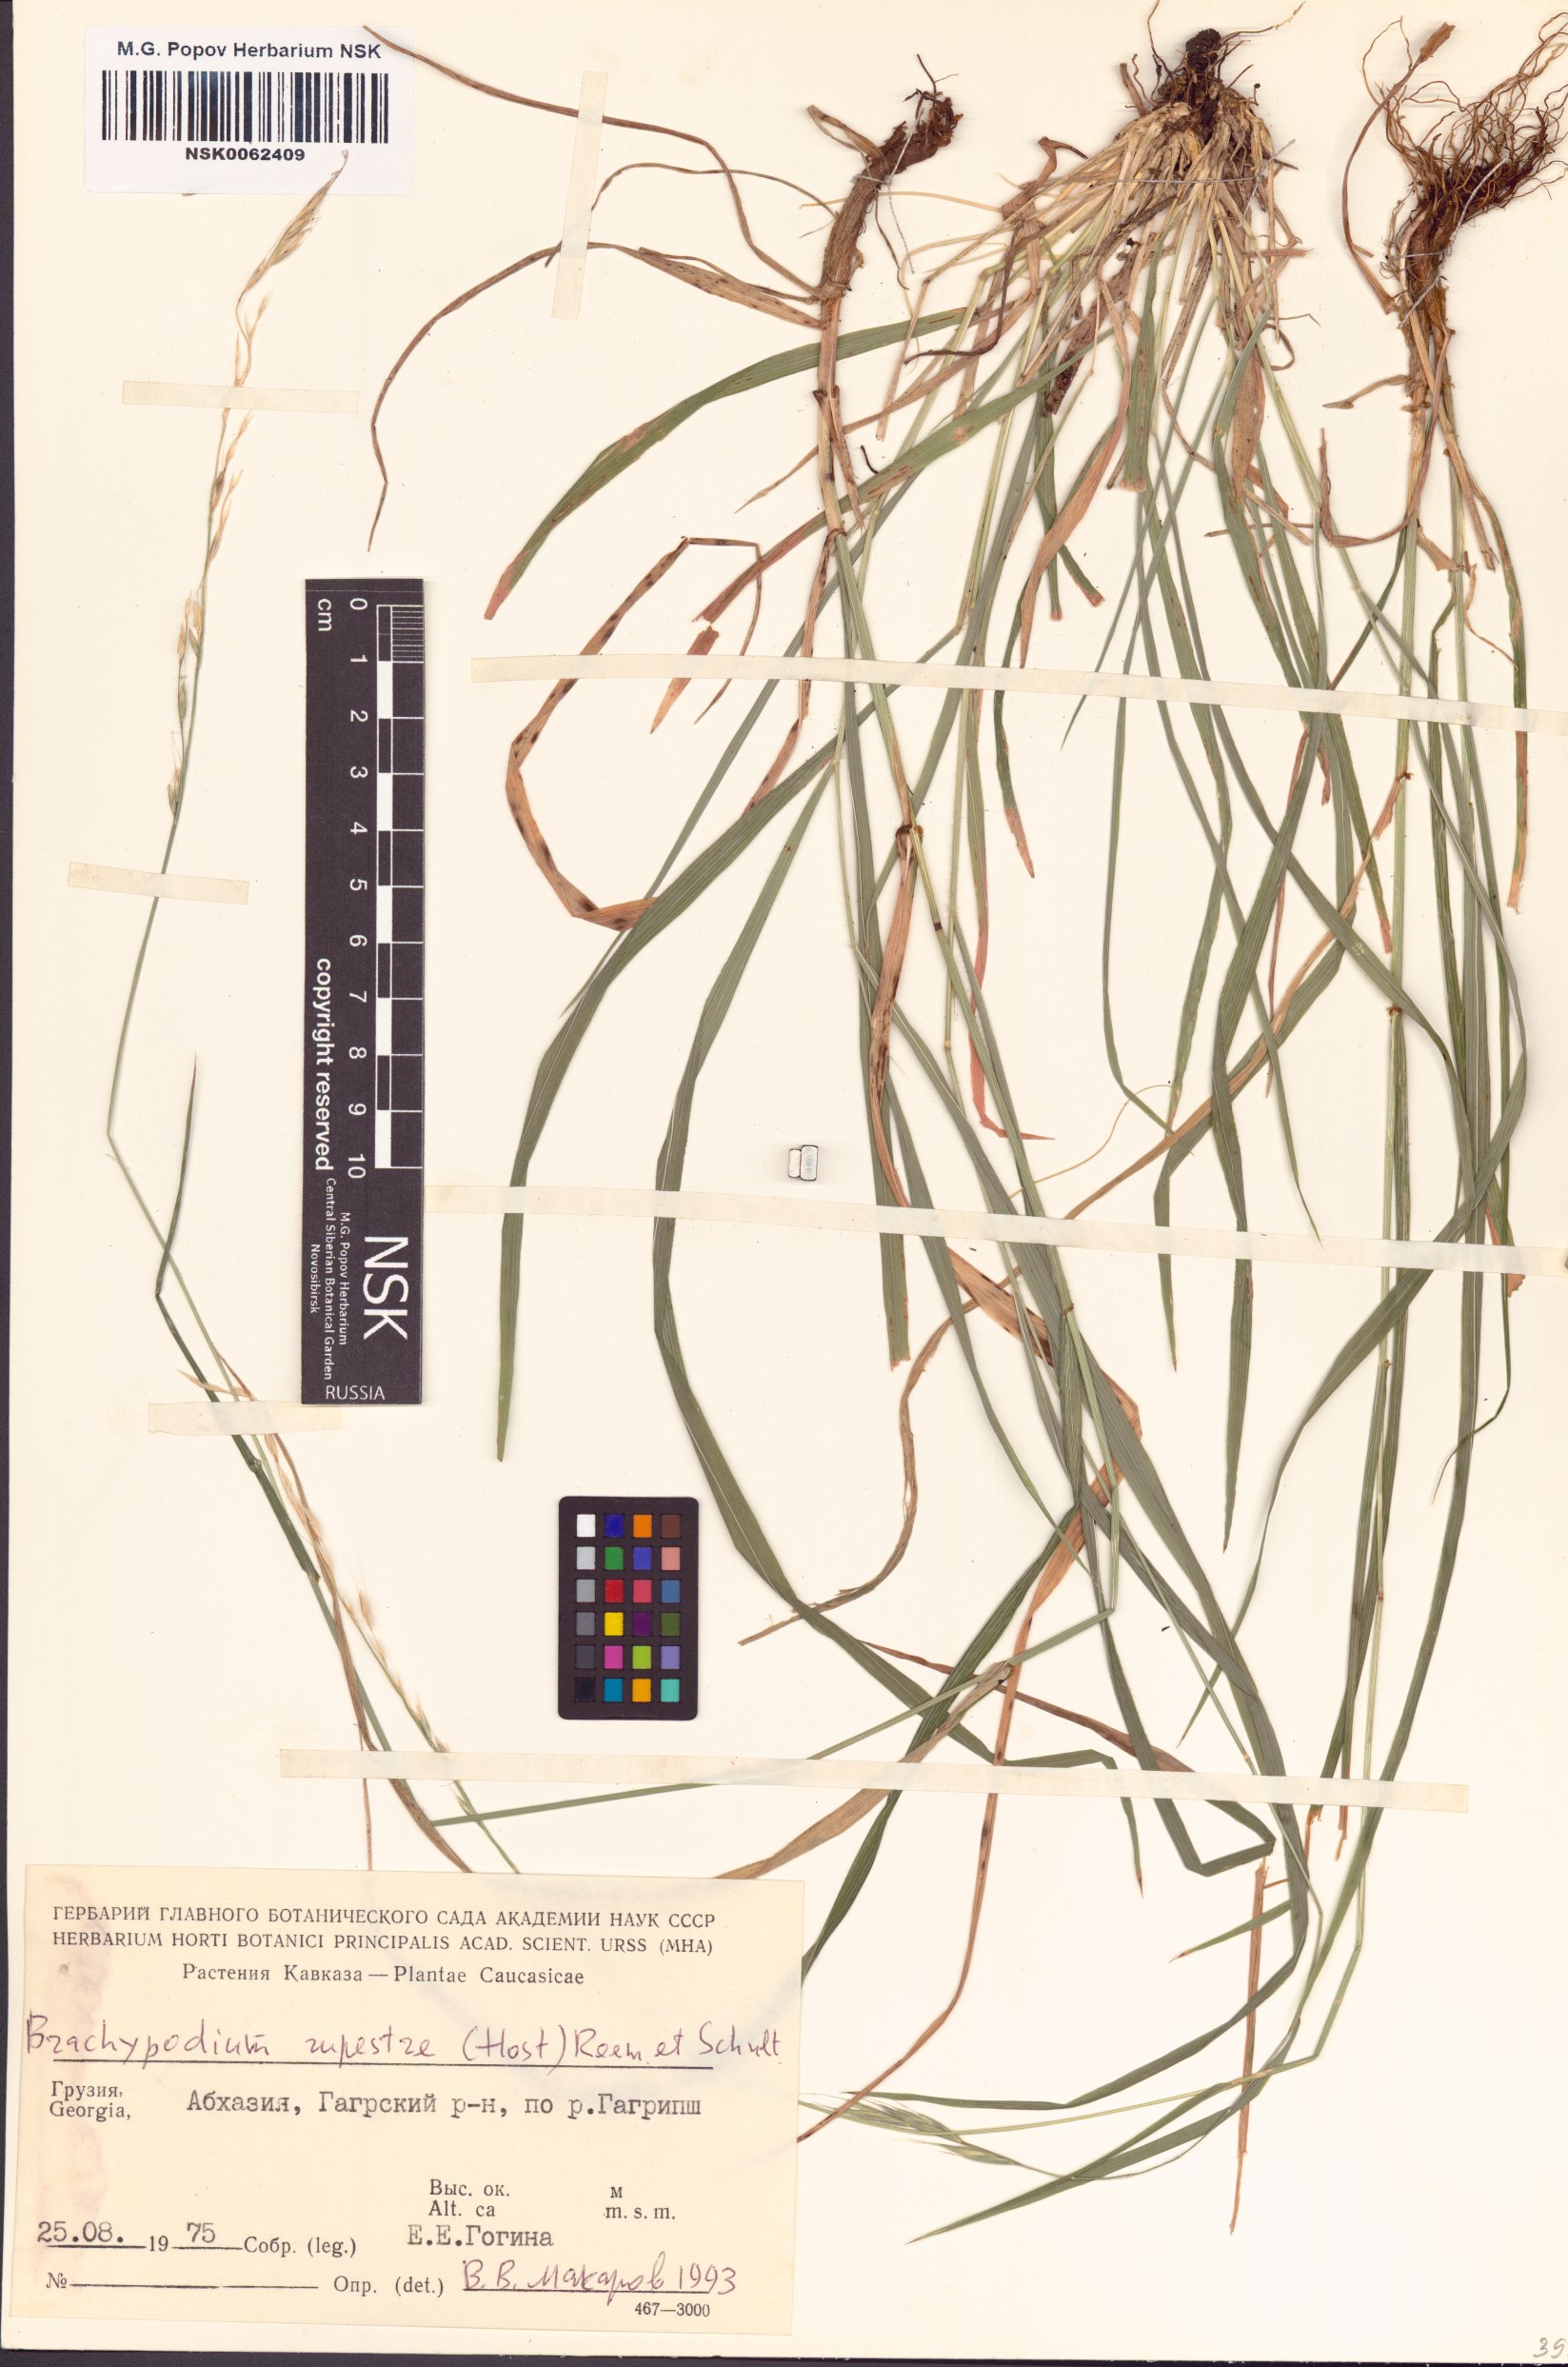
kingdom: Plantae
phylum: Tracheophyta
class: Liliopsida
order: Poales
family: Poaceae
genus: Brachypodium
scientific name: Brachypodium pinnatum
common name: Tor grass
